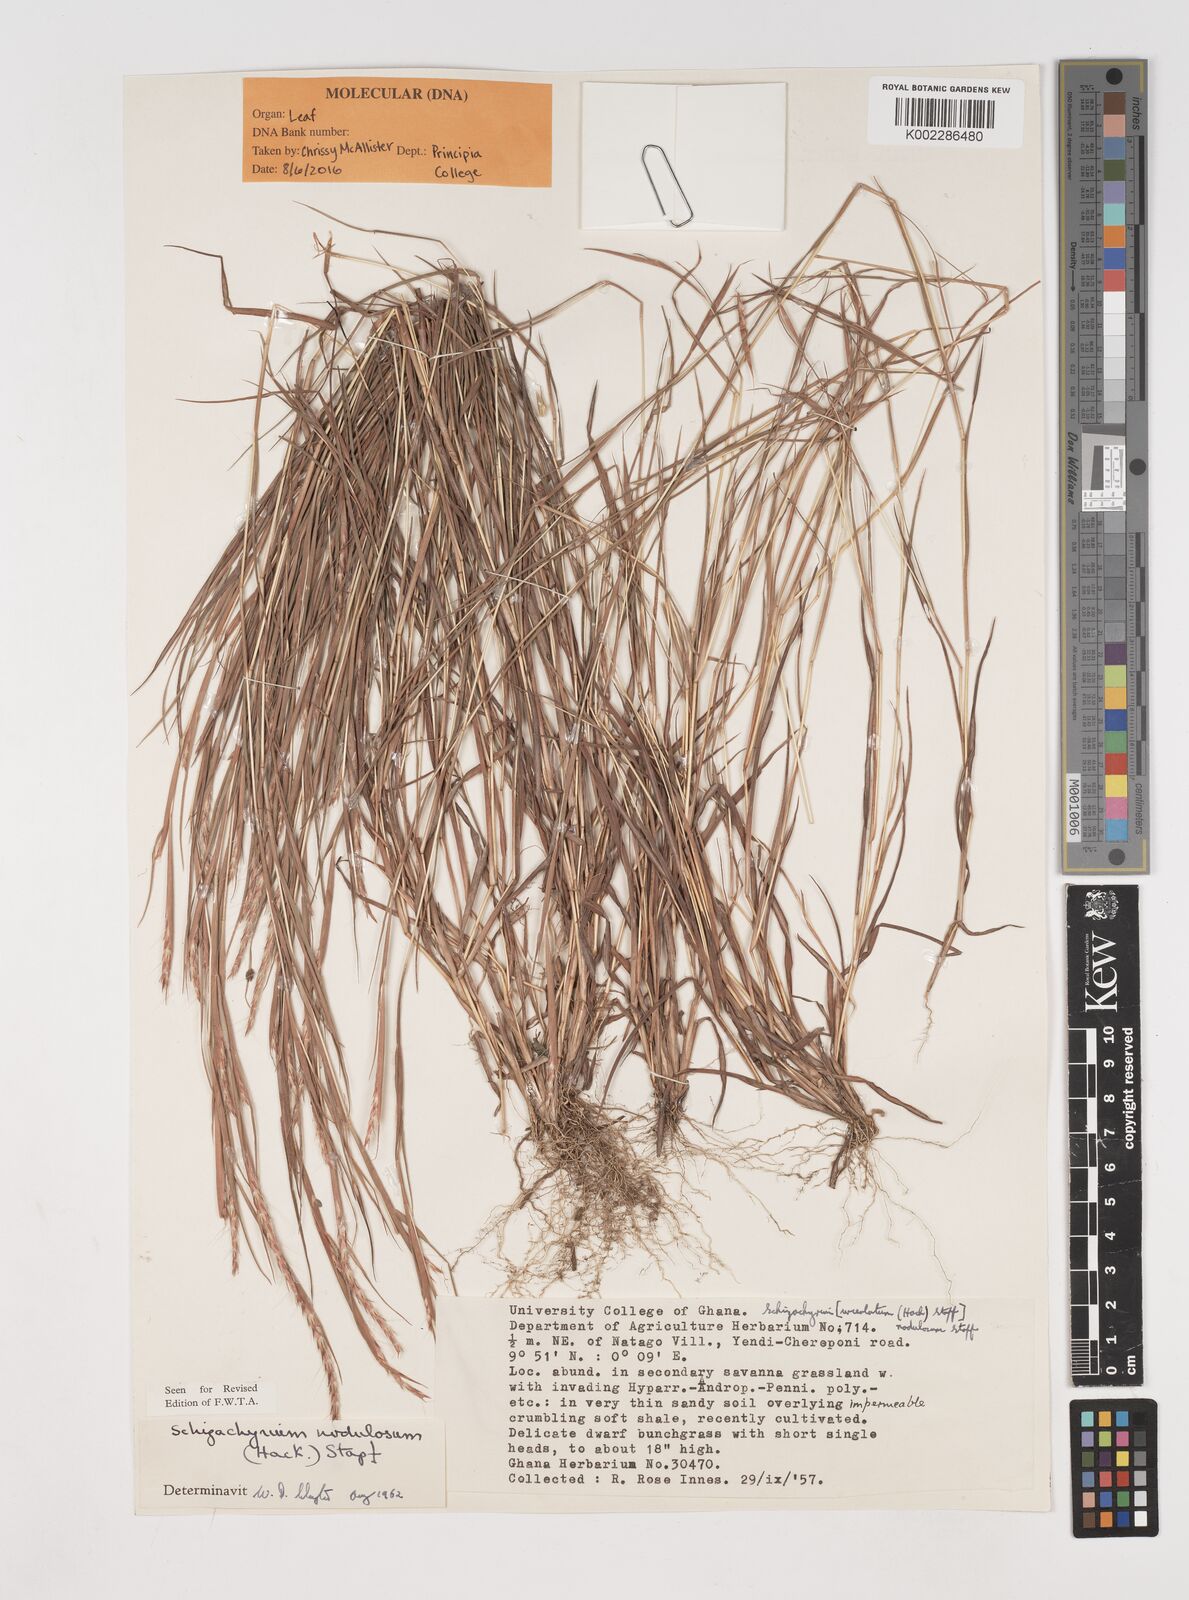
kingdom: Plantae
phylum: Tracheophyta
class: Liliopsida
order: Poales
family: Poaceae
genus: Schizachyrium
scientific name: Schizachyrium nodulosum
